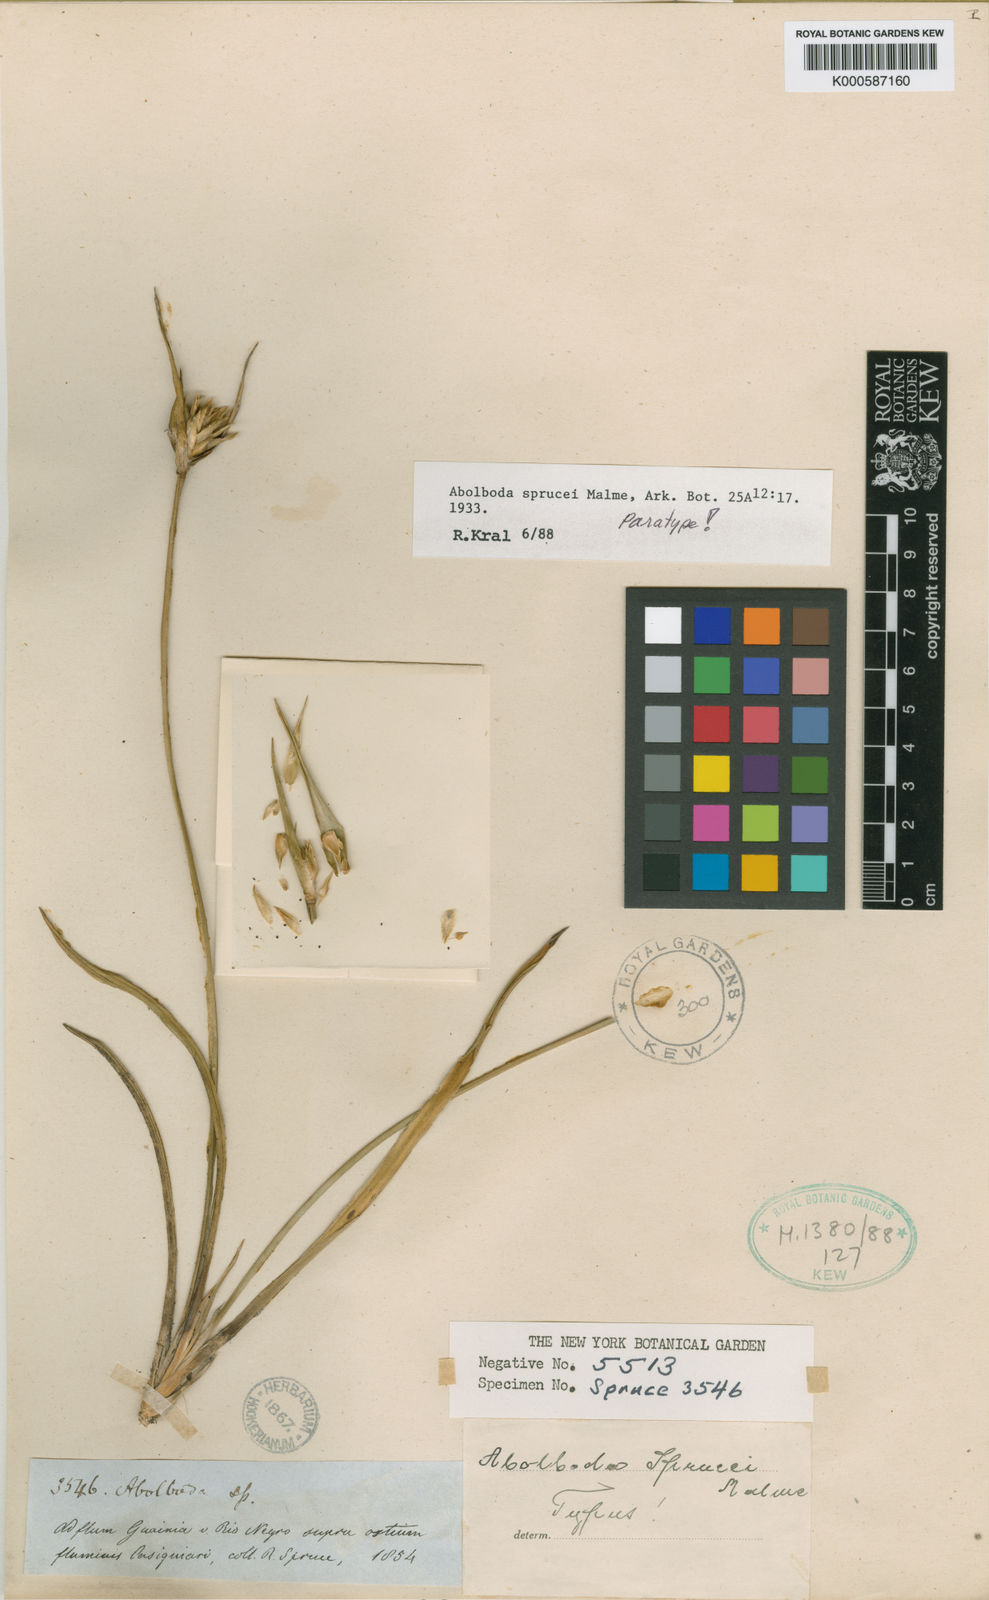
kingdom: Plantae
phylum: Tracheophyta
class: Liliopsida
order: Poales
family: Xyridaceae
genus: Abolboda
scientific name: Abolboda sprucei
